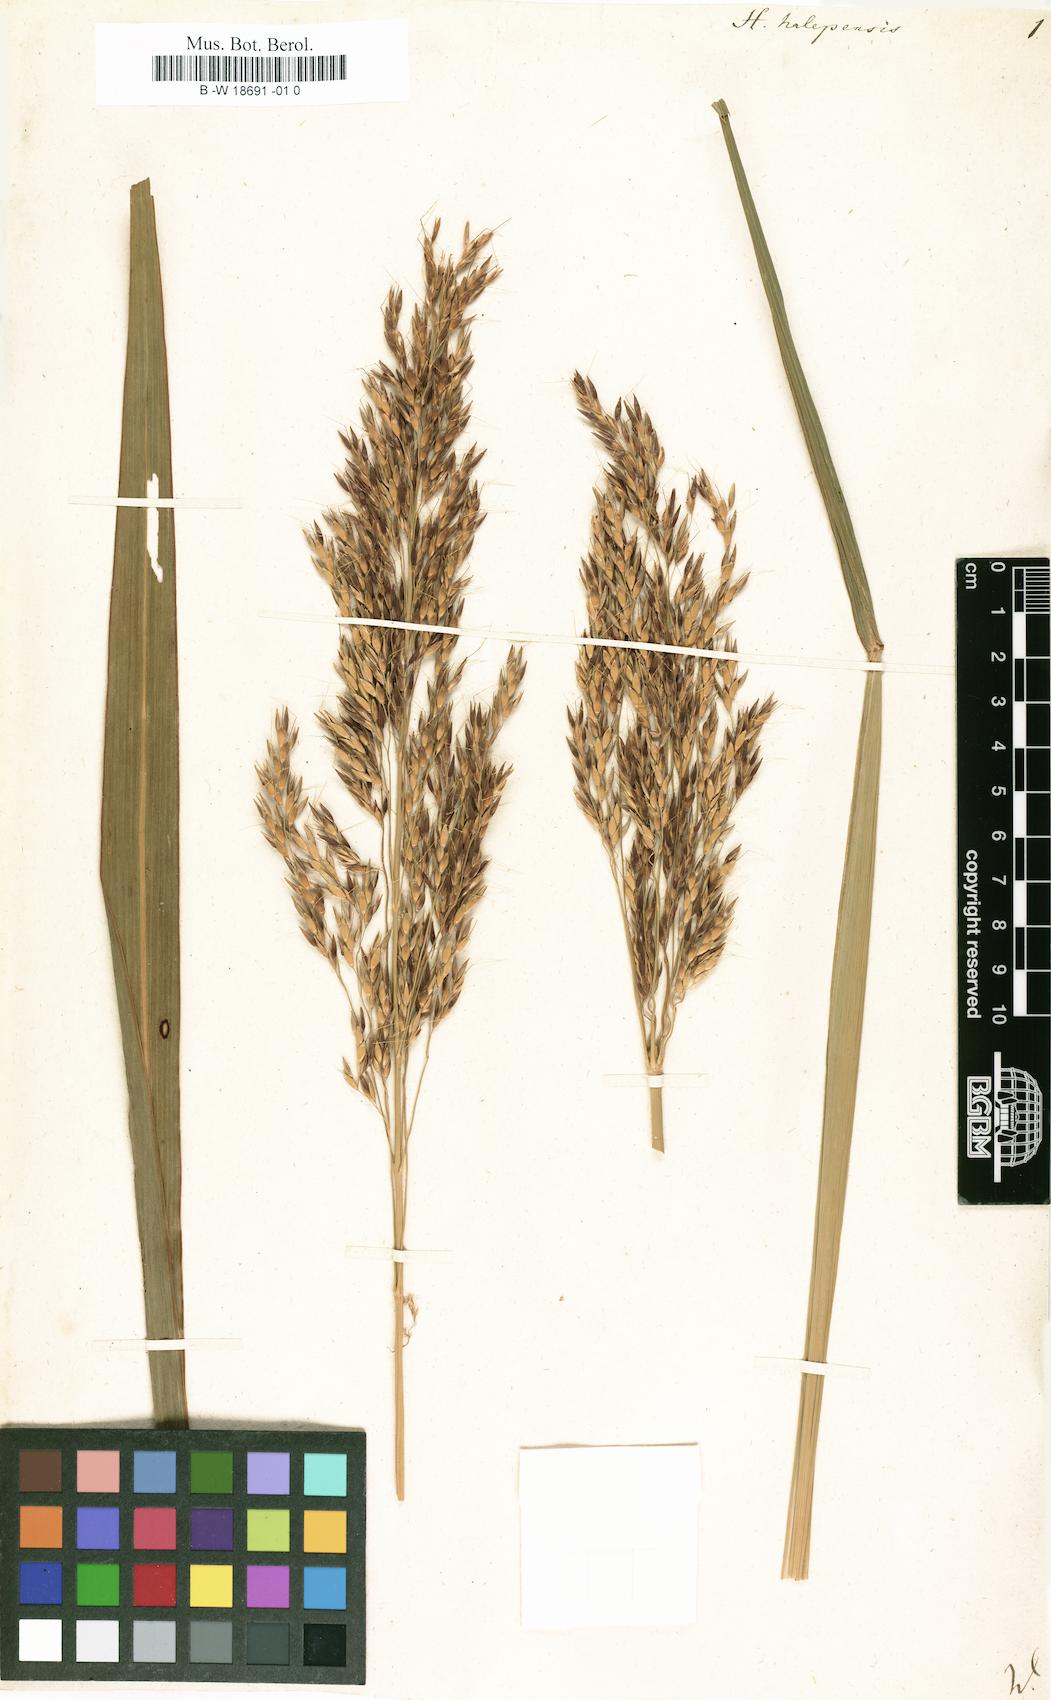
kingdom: Plantae
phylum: Tracheophyta
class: Liliopsida
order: Poales
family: Poaceae
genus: Sorghum
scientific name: Sorghum halepense
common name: Johnson-grass
